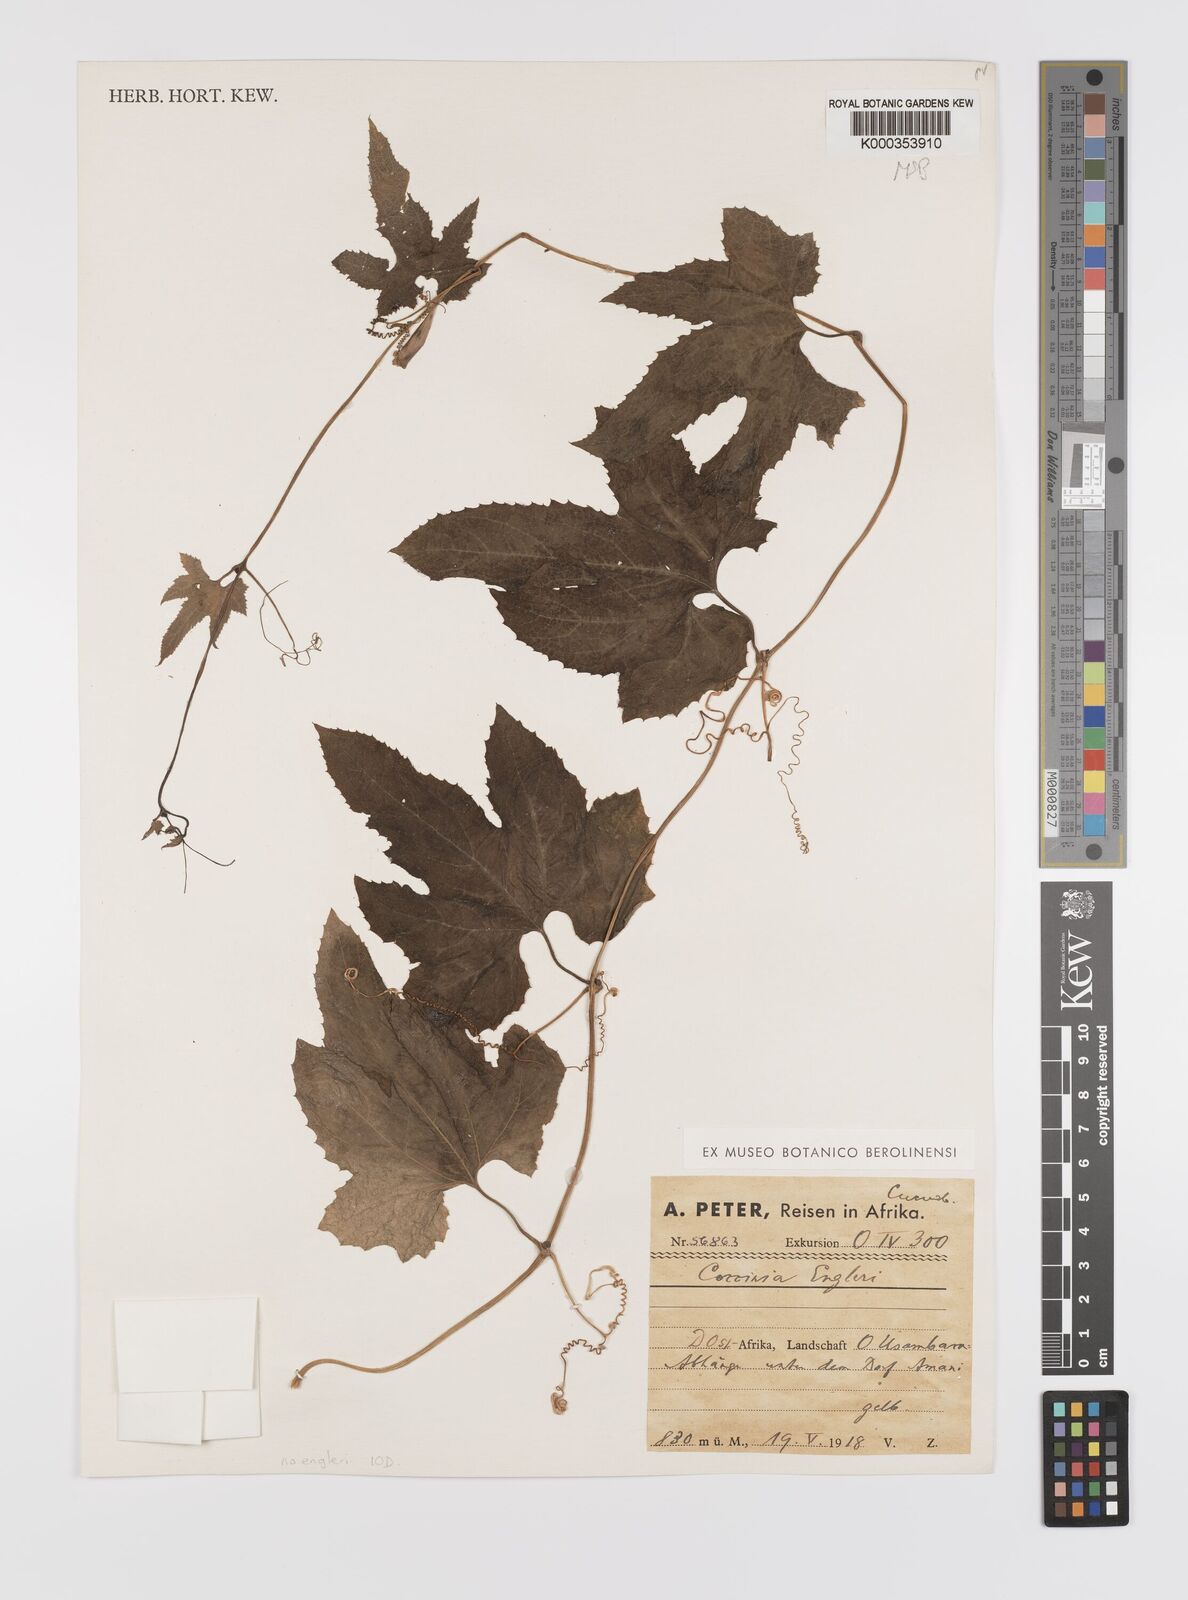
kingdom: Plantae
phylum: Tracheophyta
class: Magnoliopsida
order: Cucurbitales
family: Cucurbitaceae
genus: Momordica
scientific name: Momordica calantha
